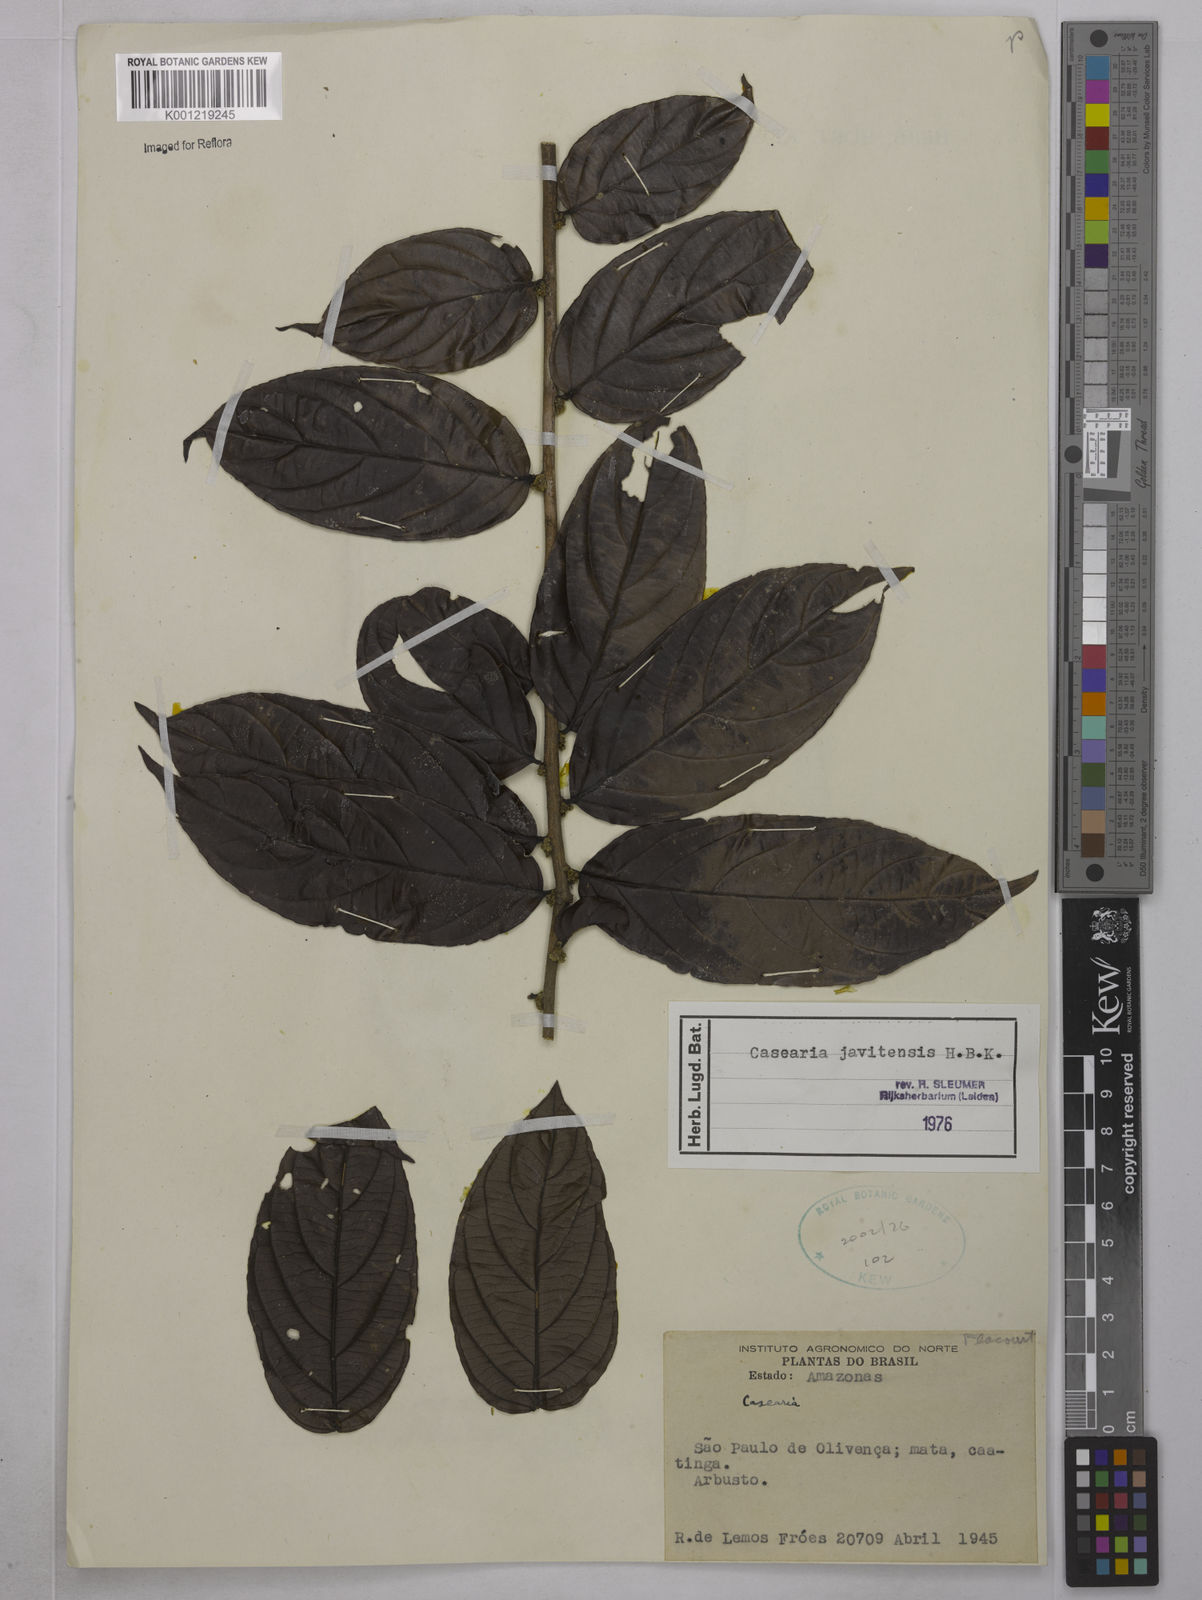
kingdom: Plantae
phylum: Tracheophyta
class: Magnoliopsida
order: Malpighiales
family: Salicaceae
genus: Piparea
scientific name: Piparea multiflora
